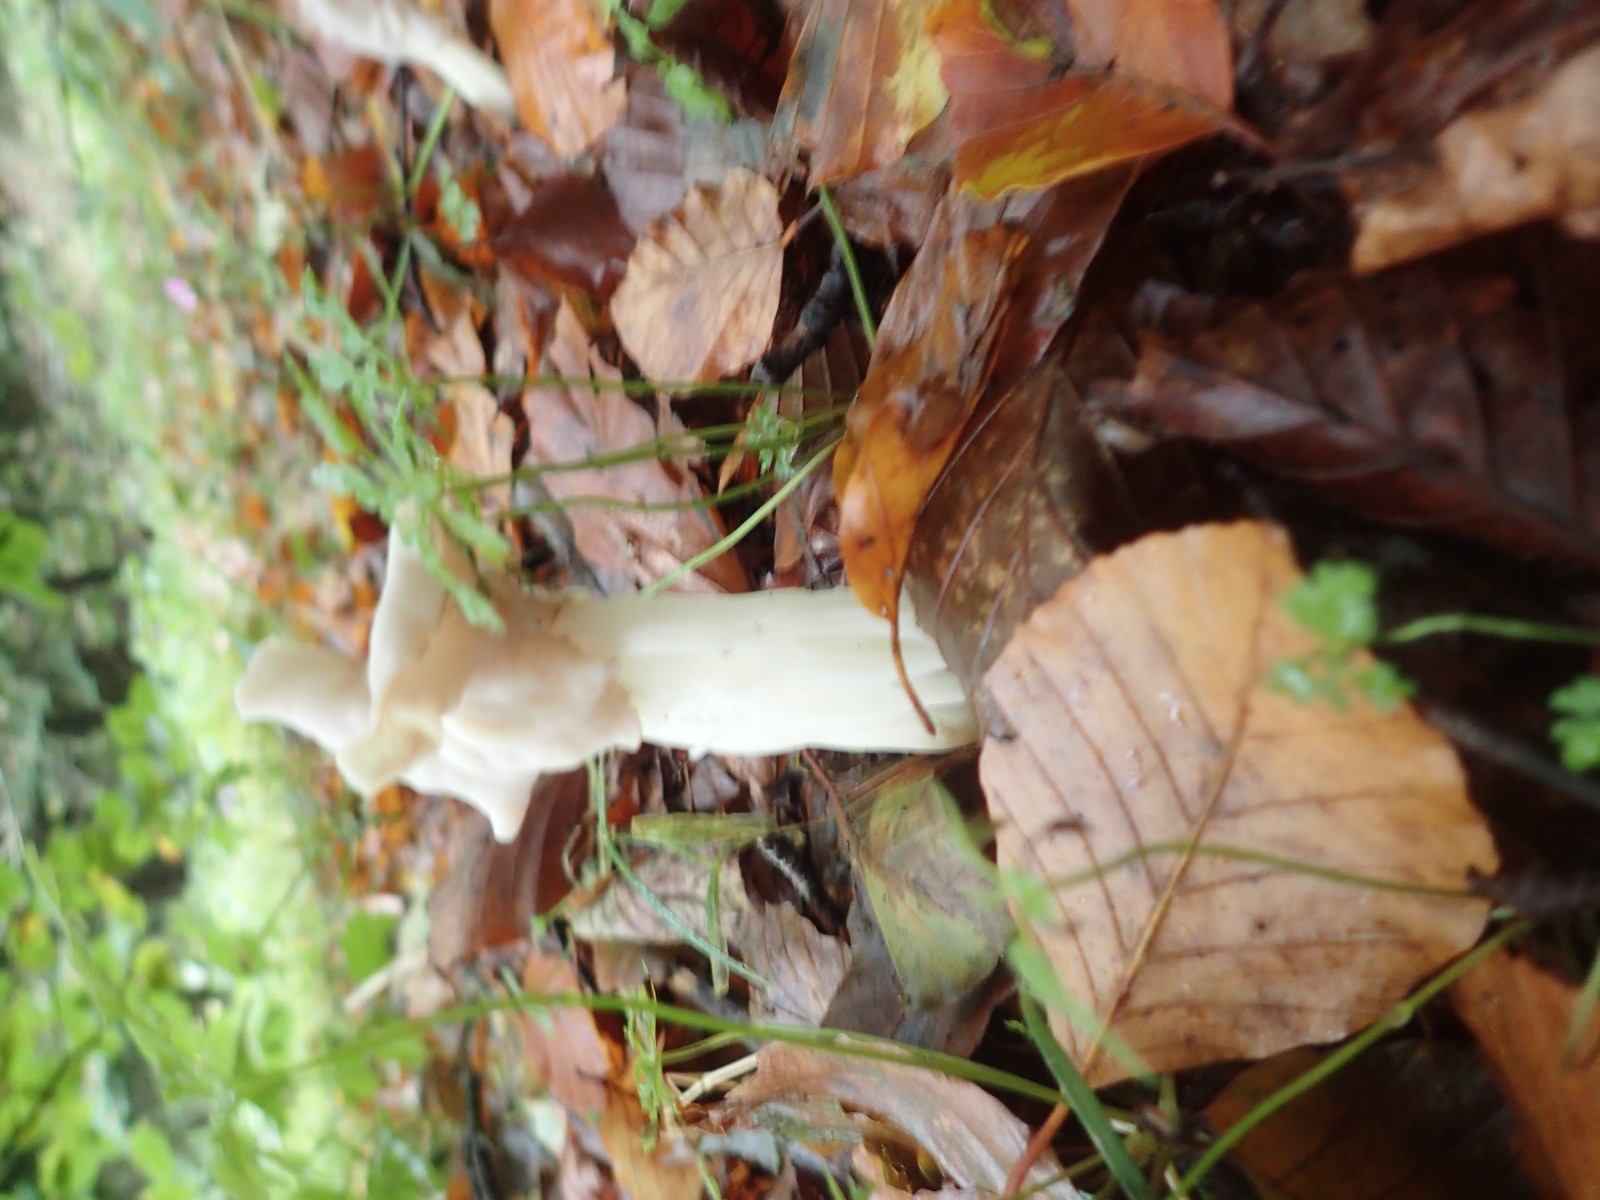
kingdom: Fungi
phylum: Ascomycota
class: Pezizomycetes
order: Pezizales
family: Helvellaceae
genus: Helvella
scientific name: Helvella crispa
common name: kruset foldhat
